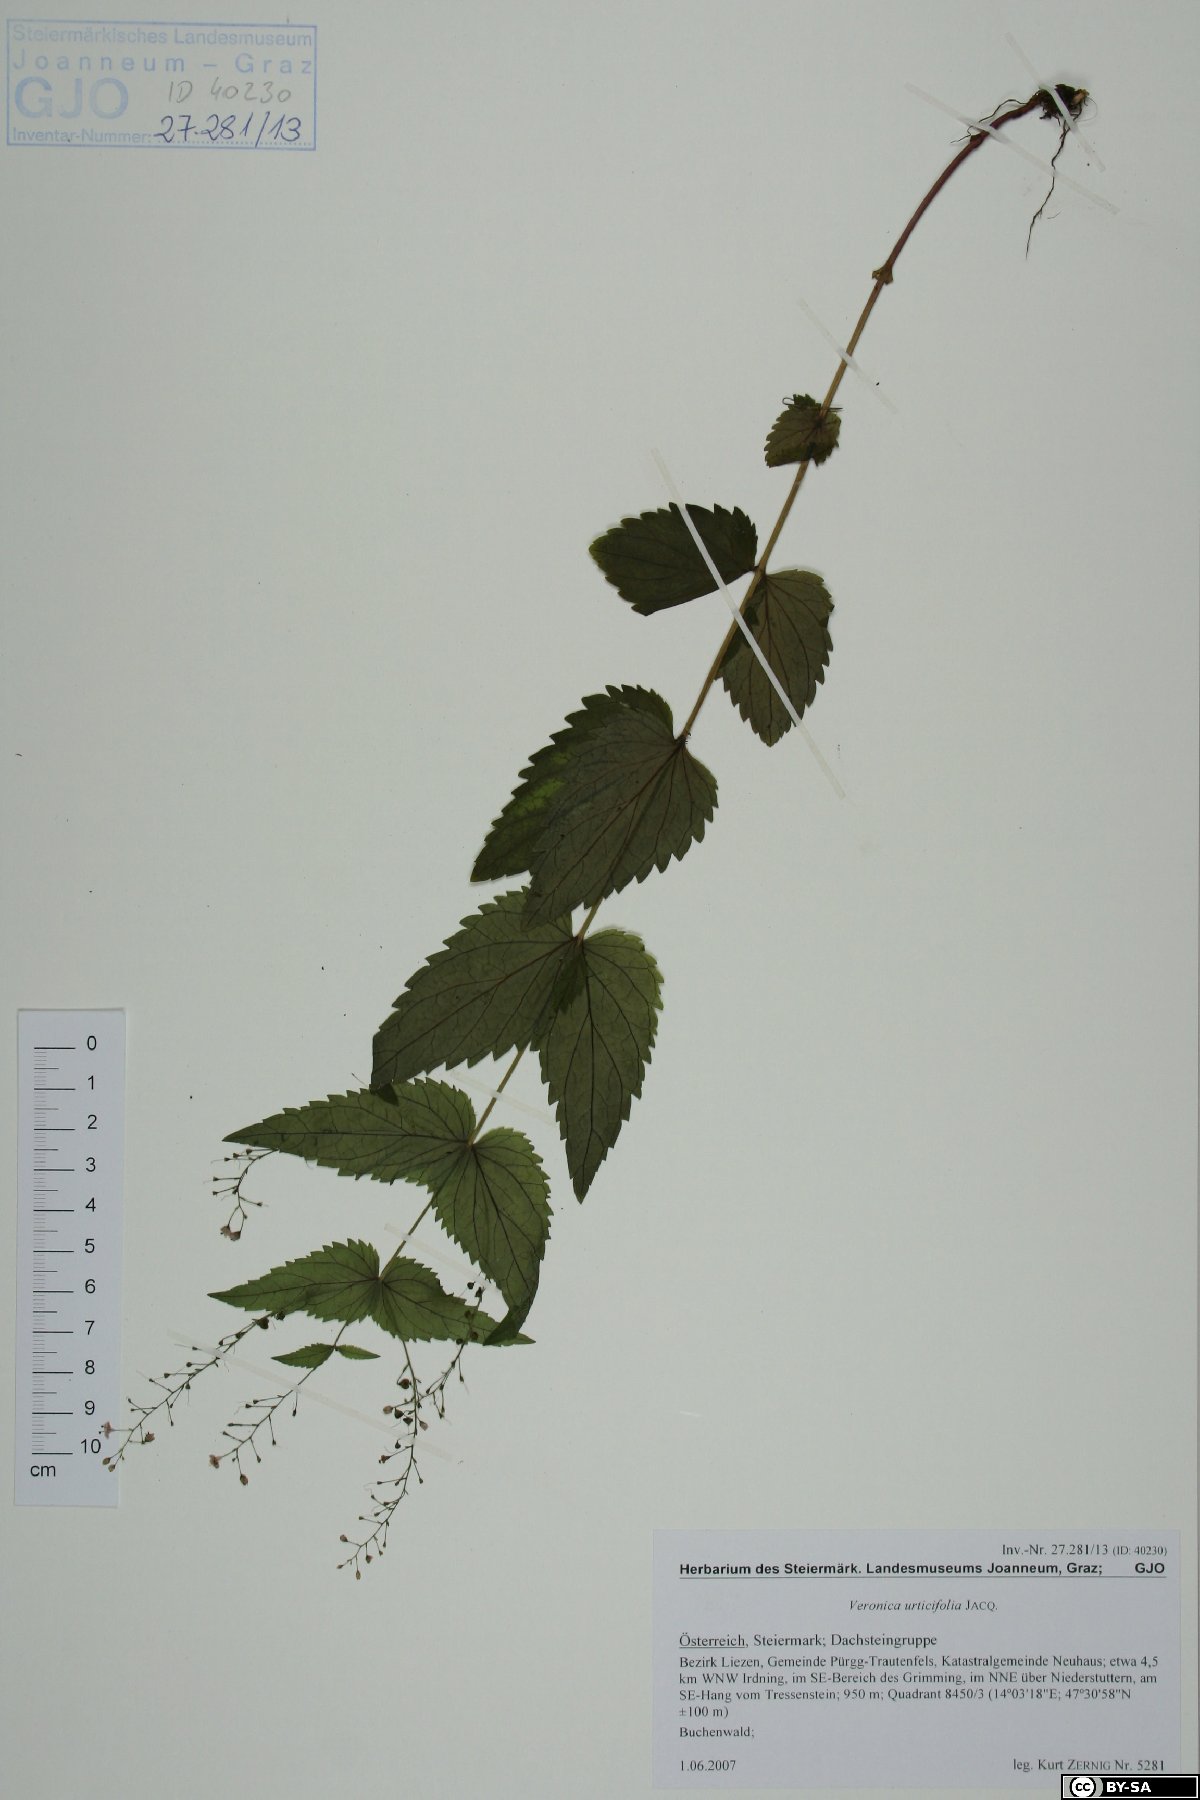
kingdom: Plantae
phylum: Tracheophyta
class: Magnoliopsida
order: Lamiales
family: Plantaginaceae
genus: Veronica
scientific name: Veronica urticifolia
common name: Nettle-leaf speedwell
